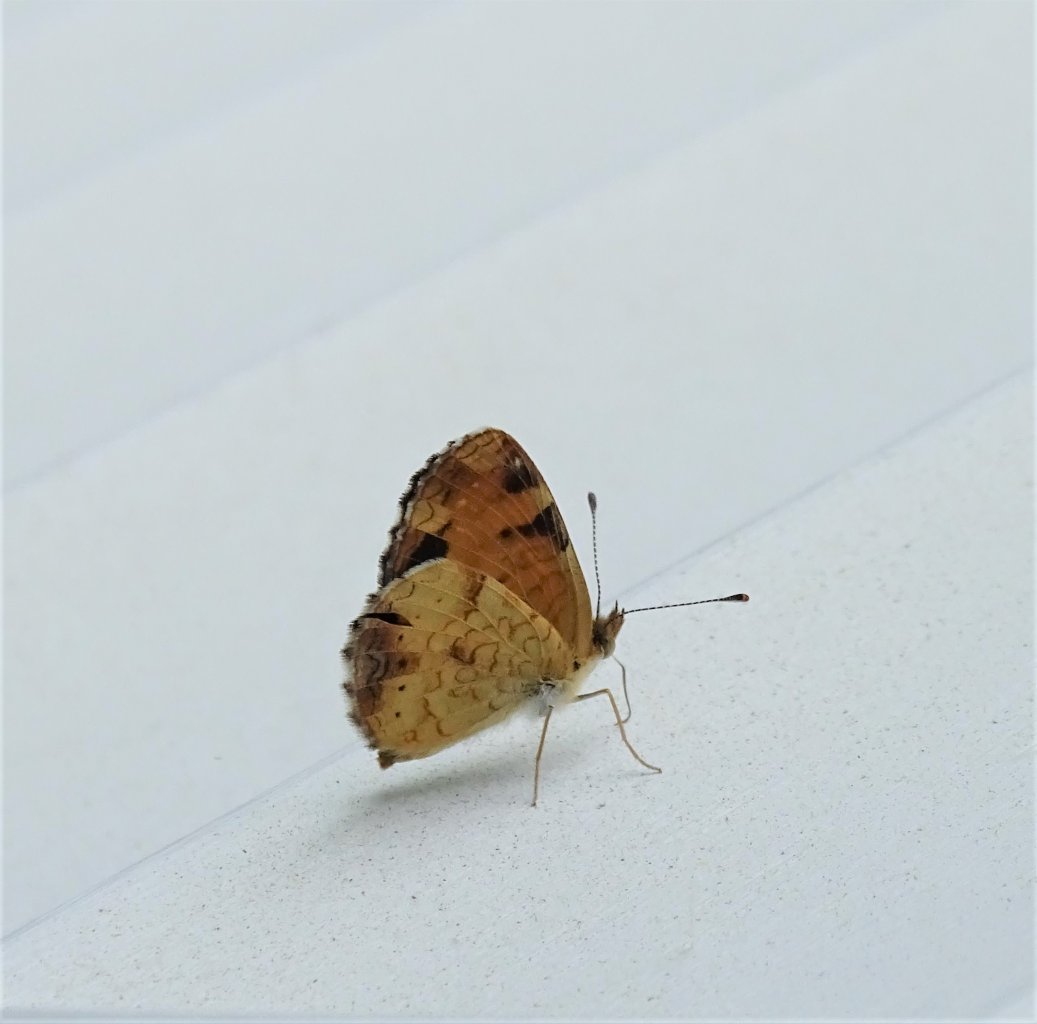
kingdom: Animalia
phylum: Arthropoda
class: Insecta
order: Lepidoptera
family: Nymphalidae
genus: Phyciodes
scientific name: Phyciodes tharos
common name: Pearl Crescent
